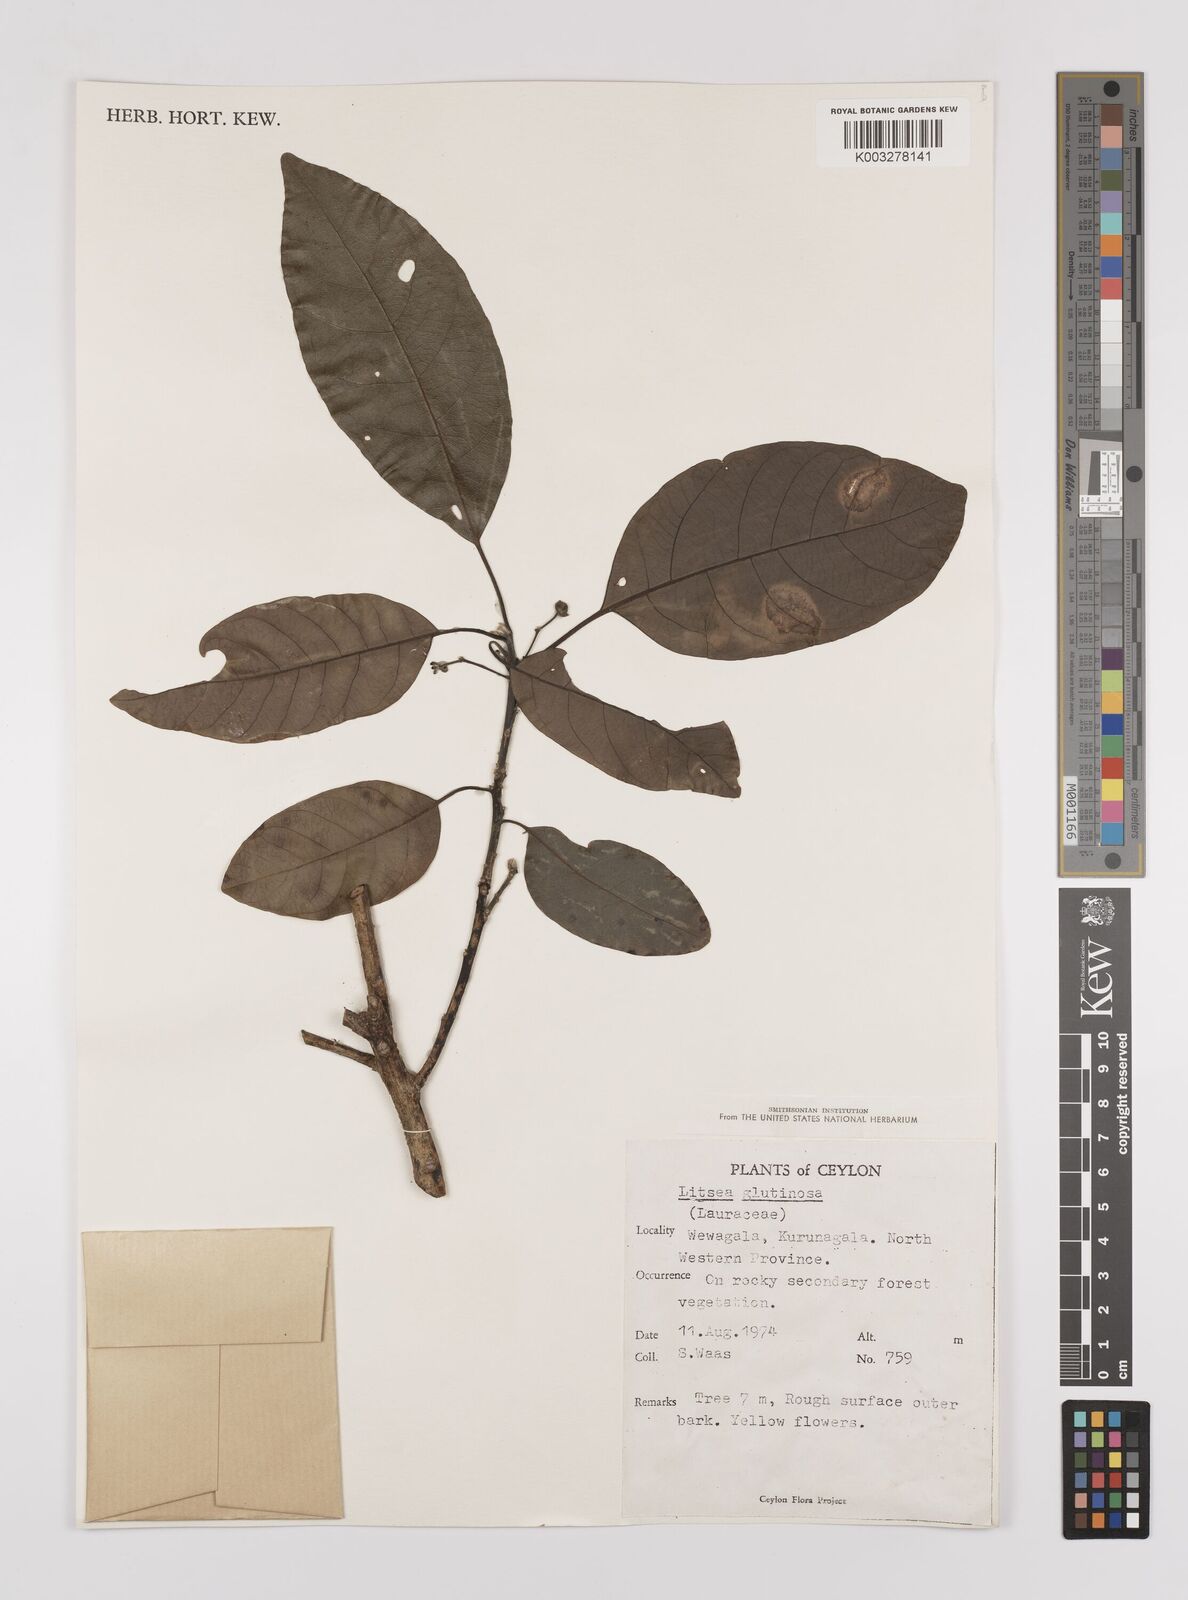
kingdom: Plantae
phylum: Tracheophyta
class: Magnoliopsida
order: Laurales
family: Lauraceae
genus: Litsea
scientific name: Litsea
